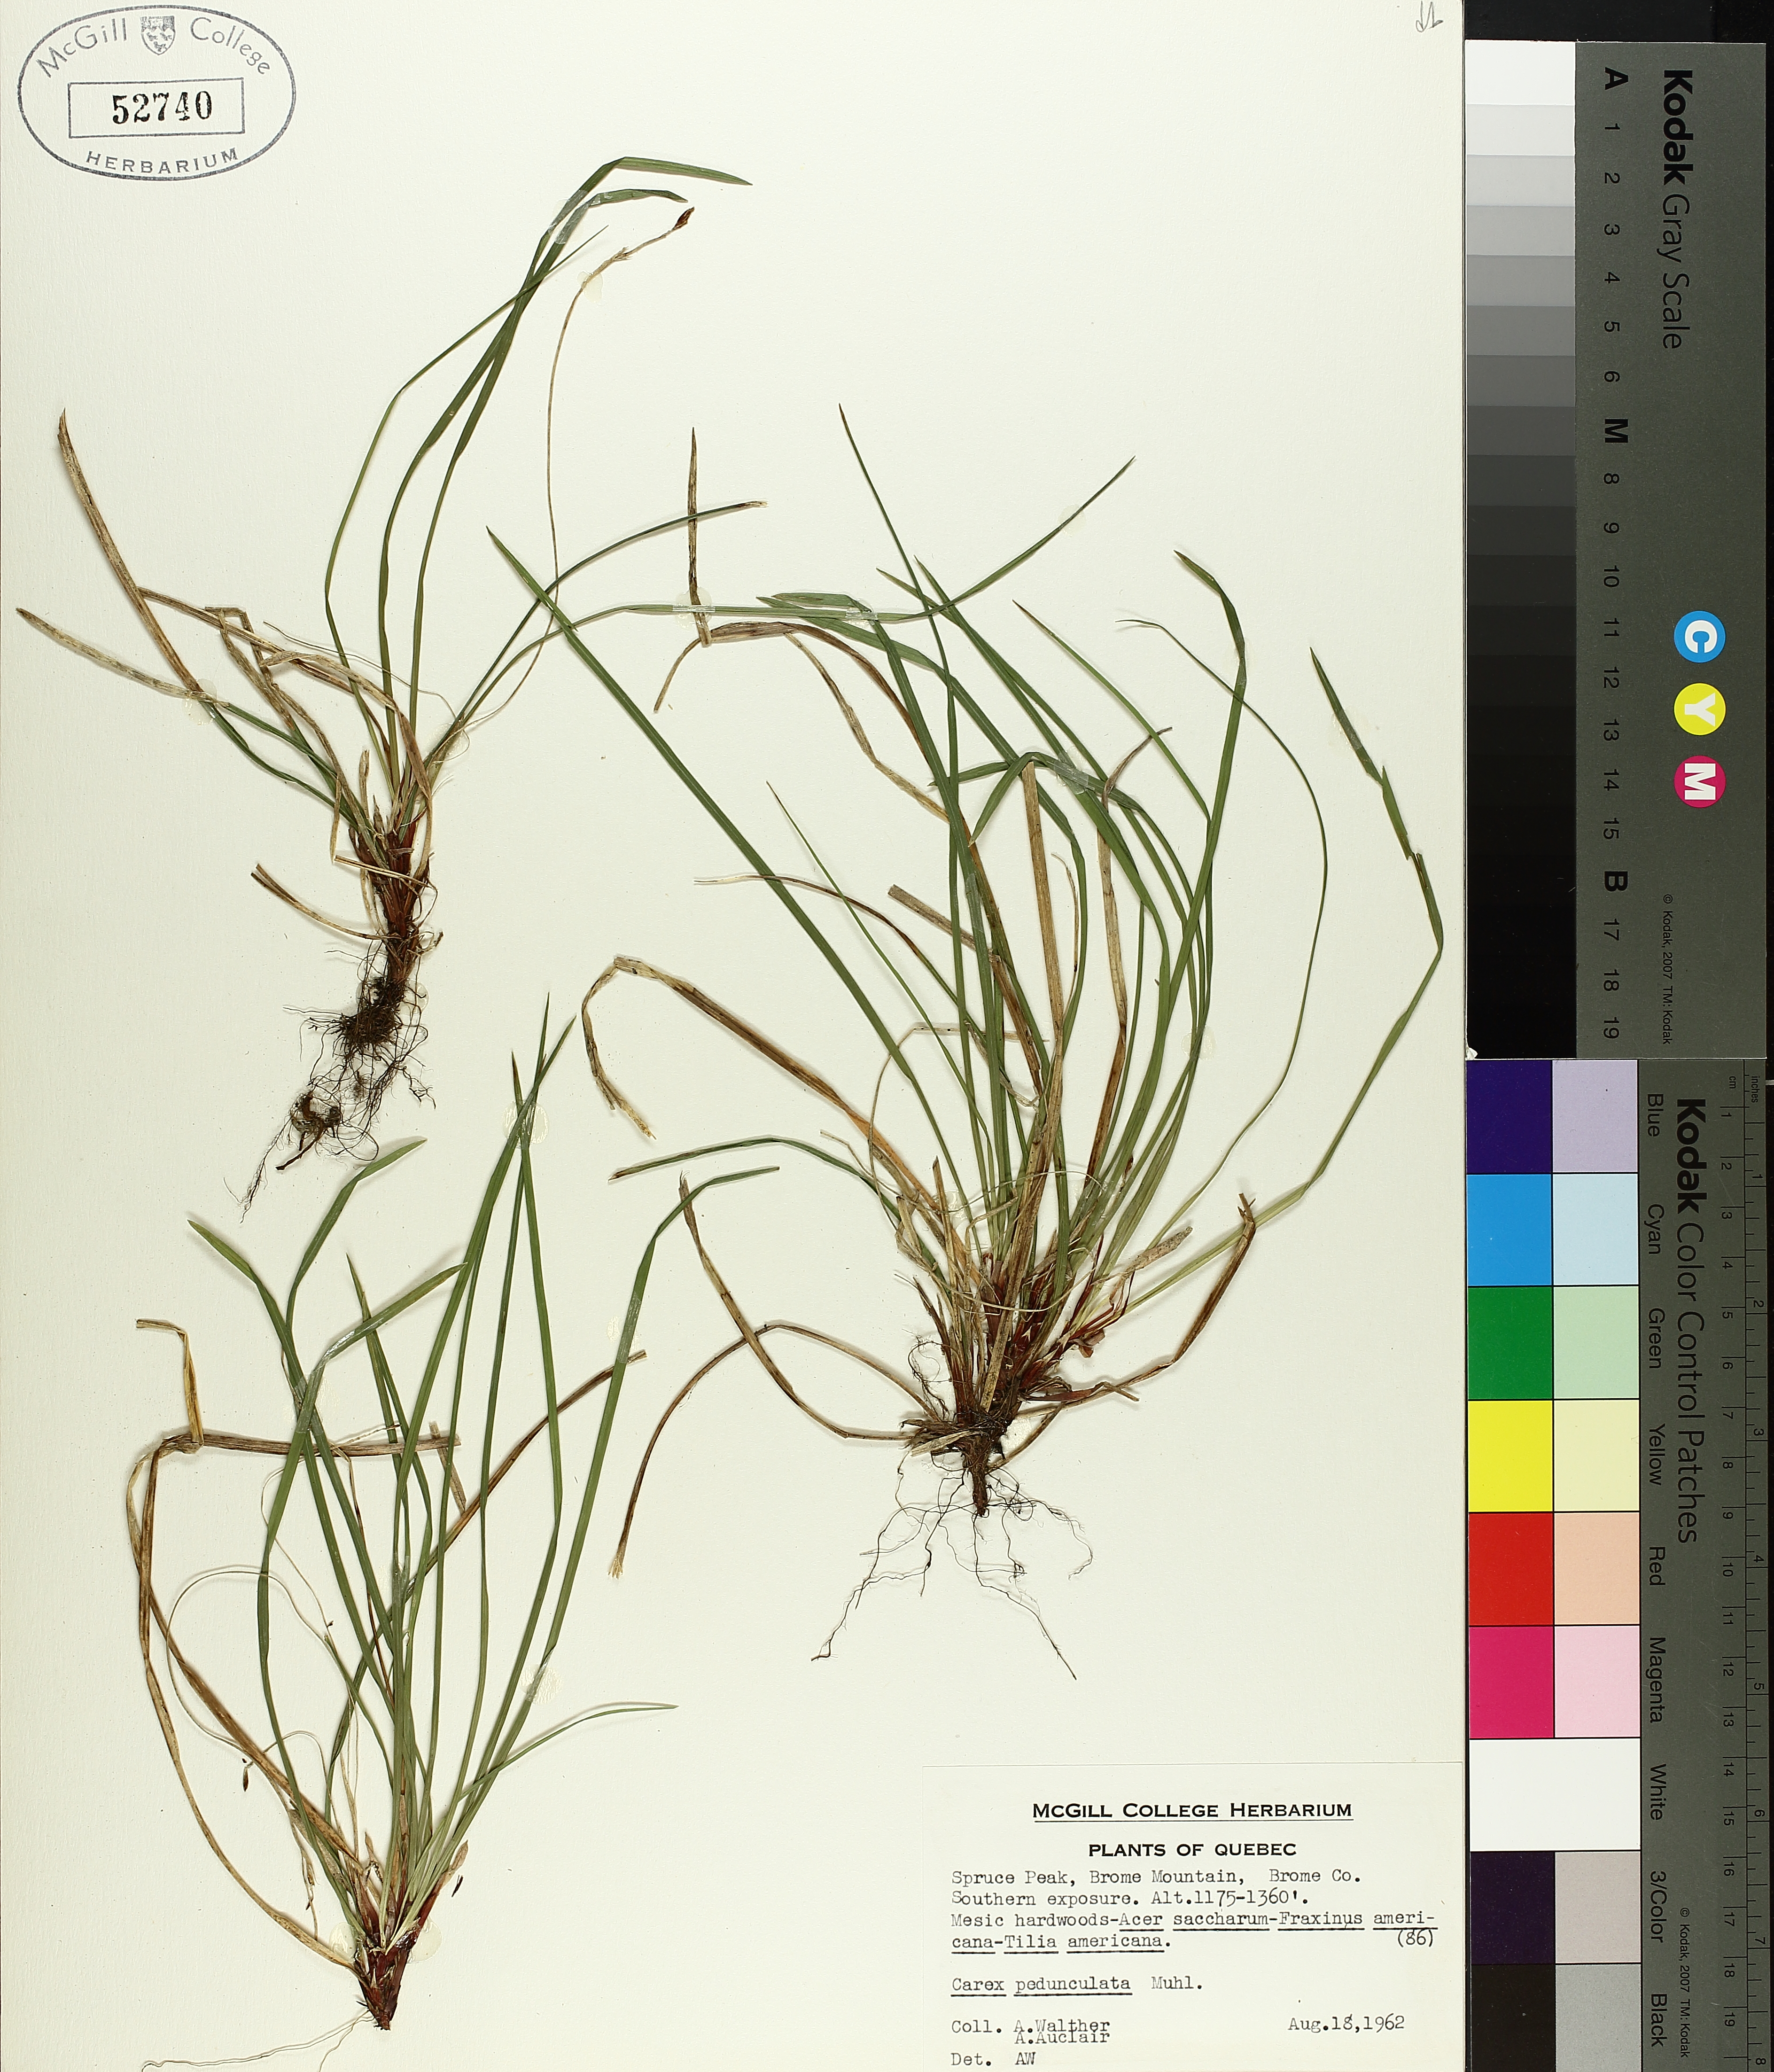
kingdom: Plantae
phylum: Tracheophyta
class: Liliopsida
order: Poales
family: Cyperaceae
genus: Carex
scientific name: Carex pedunculata
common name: Pedunculate sedge
